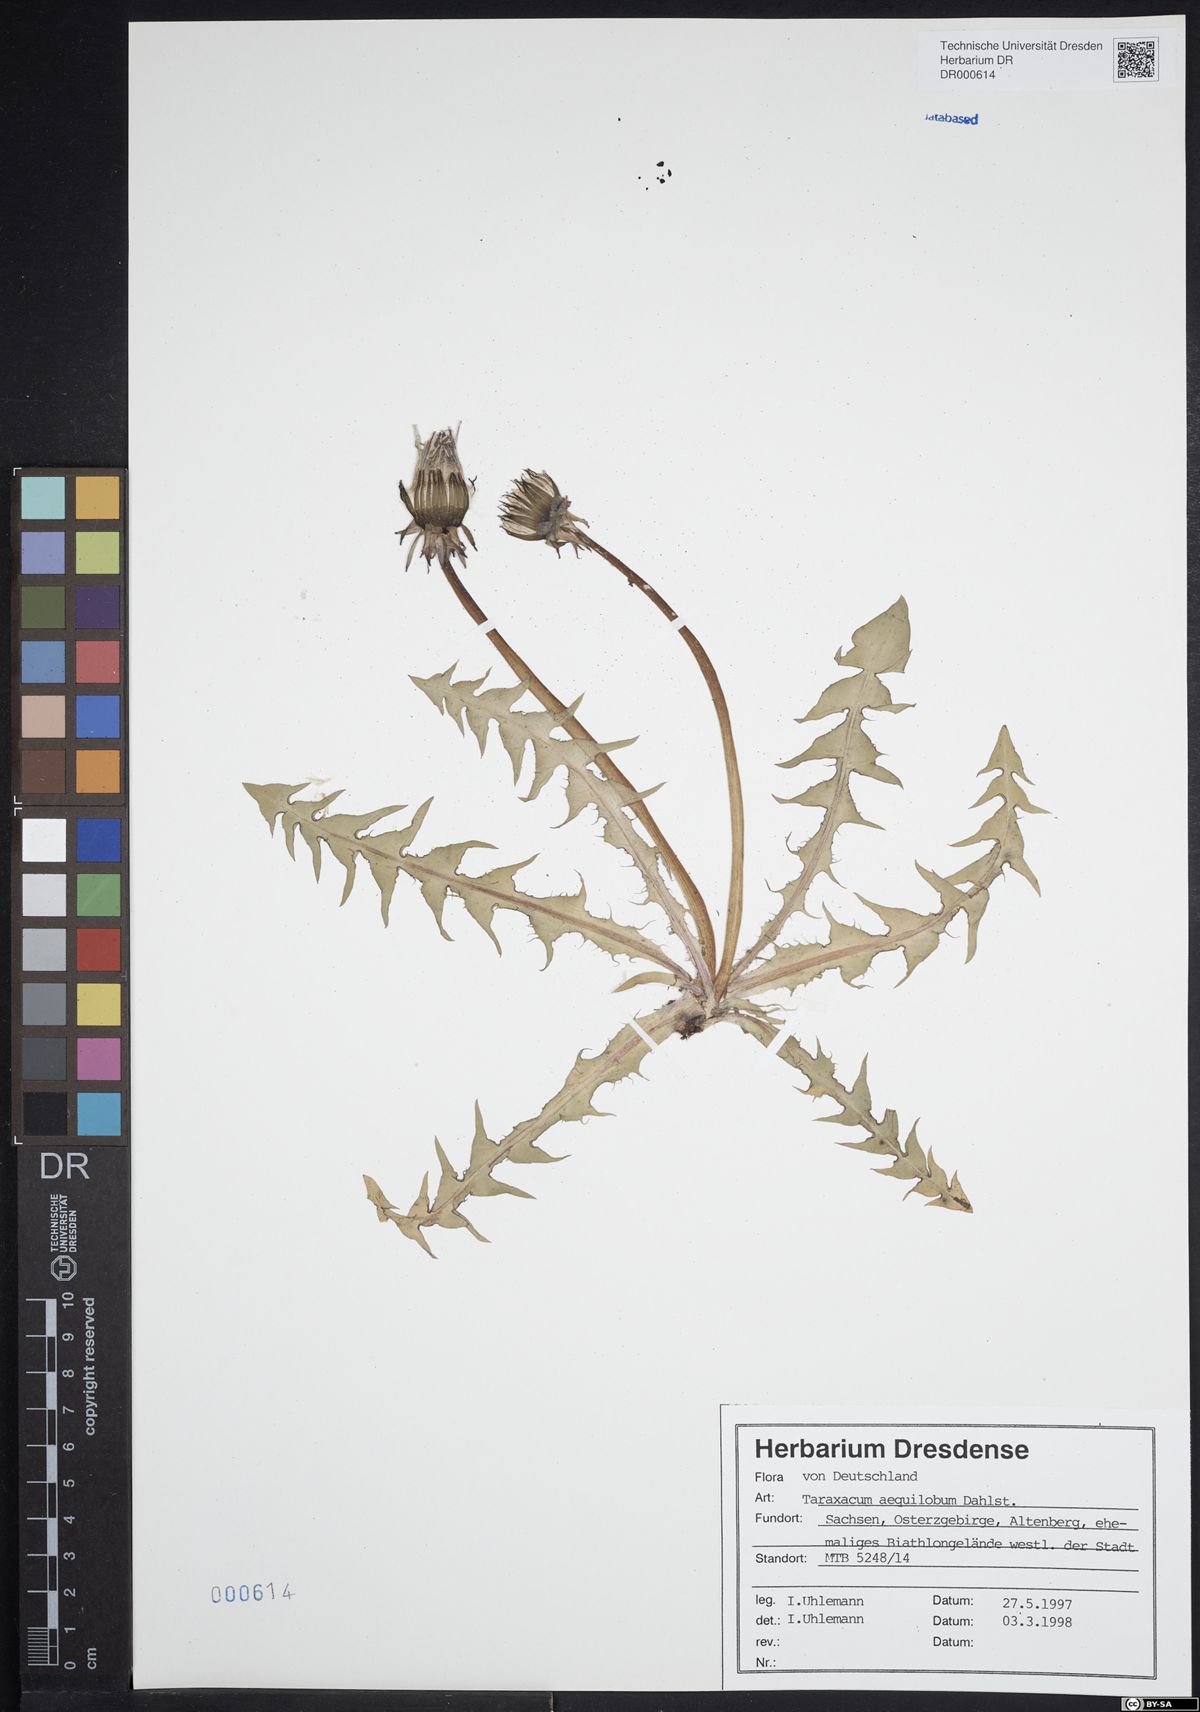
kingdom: Plantae
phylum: Tracheophyta
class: Magnoliopsida
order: Asterales
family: Asteraceae
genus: Taraxacum
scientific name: Taraxacum aequilobum
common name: Twisted-bracted dandelion
